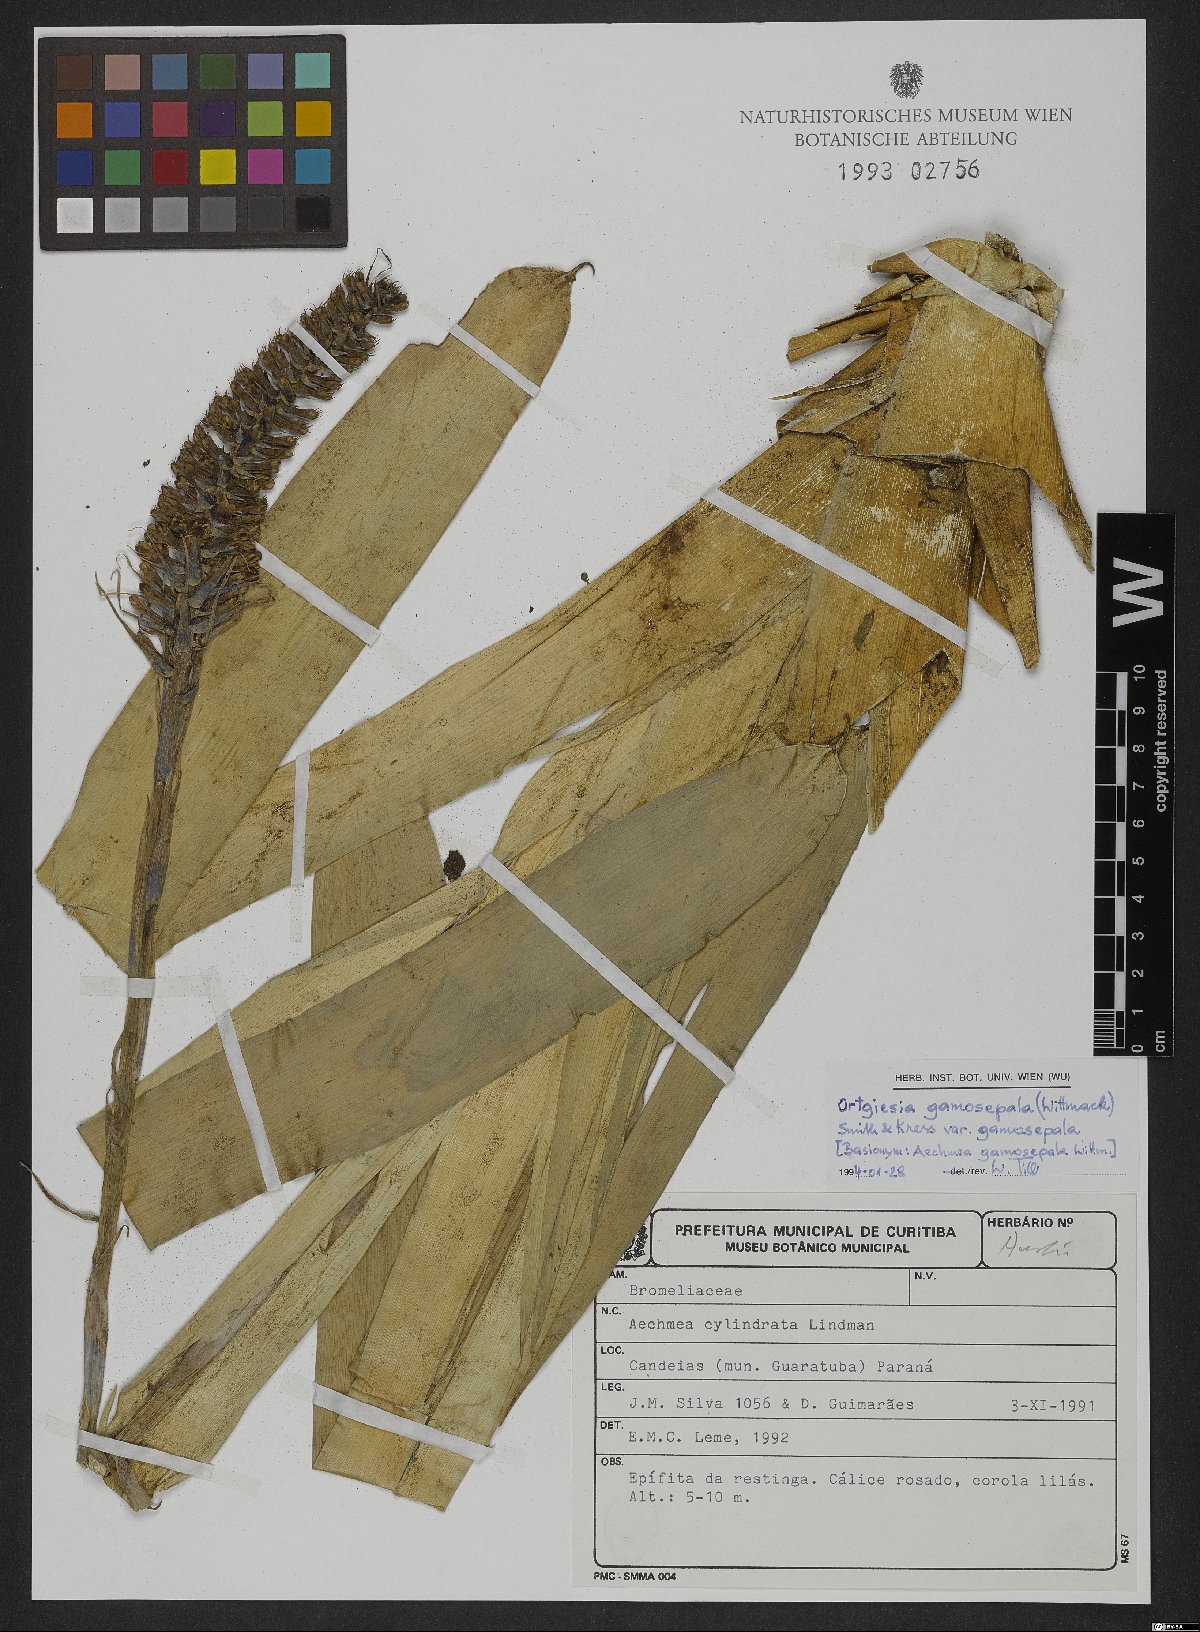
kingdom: Plantae
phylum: Tracheophyta
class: Liliopsida
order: Poales
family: Bromeliaceae
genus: Aechmea
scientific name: Aechmea gamosepala
